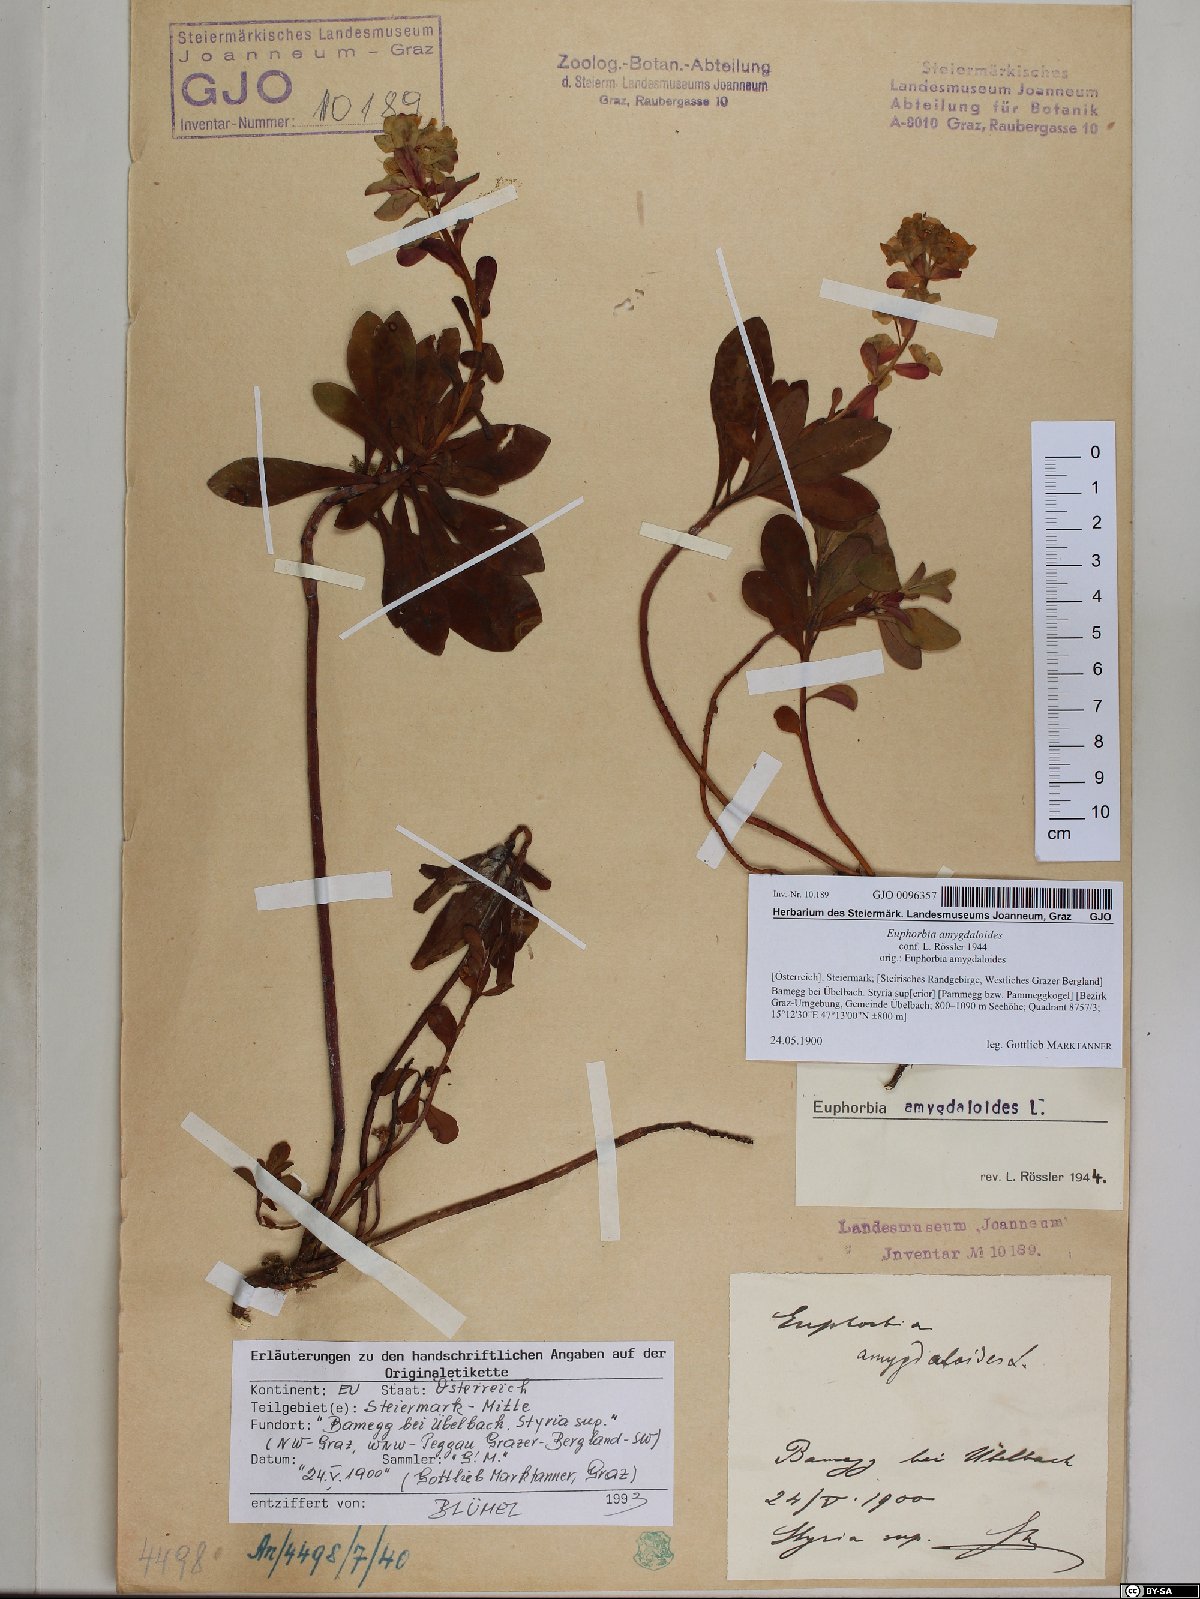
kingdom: Plantae
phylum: Tracheophyta
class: Magnoliopsida
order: Malpighiales
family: Euphorbiaceae
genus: Euphorbia
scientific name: Euphorbia amygdaloides
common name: Wood spurge
